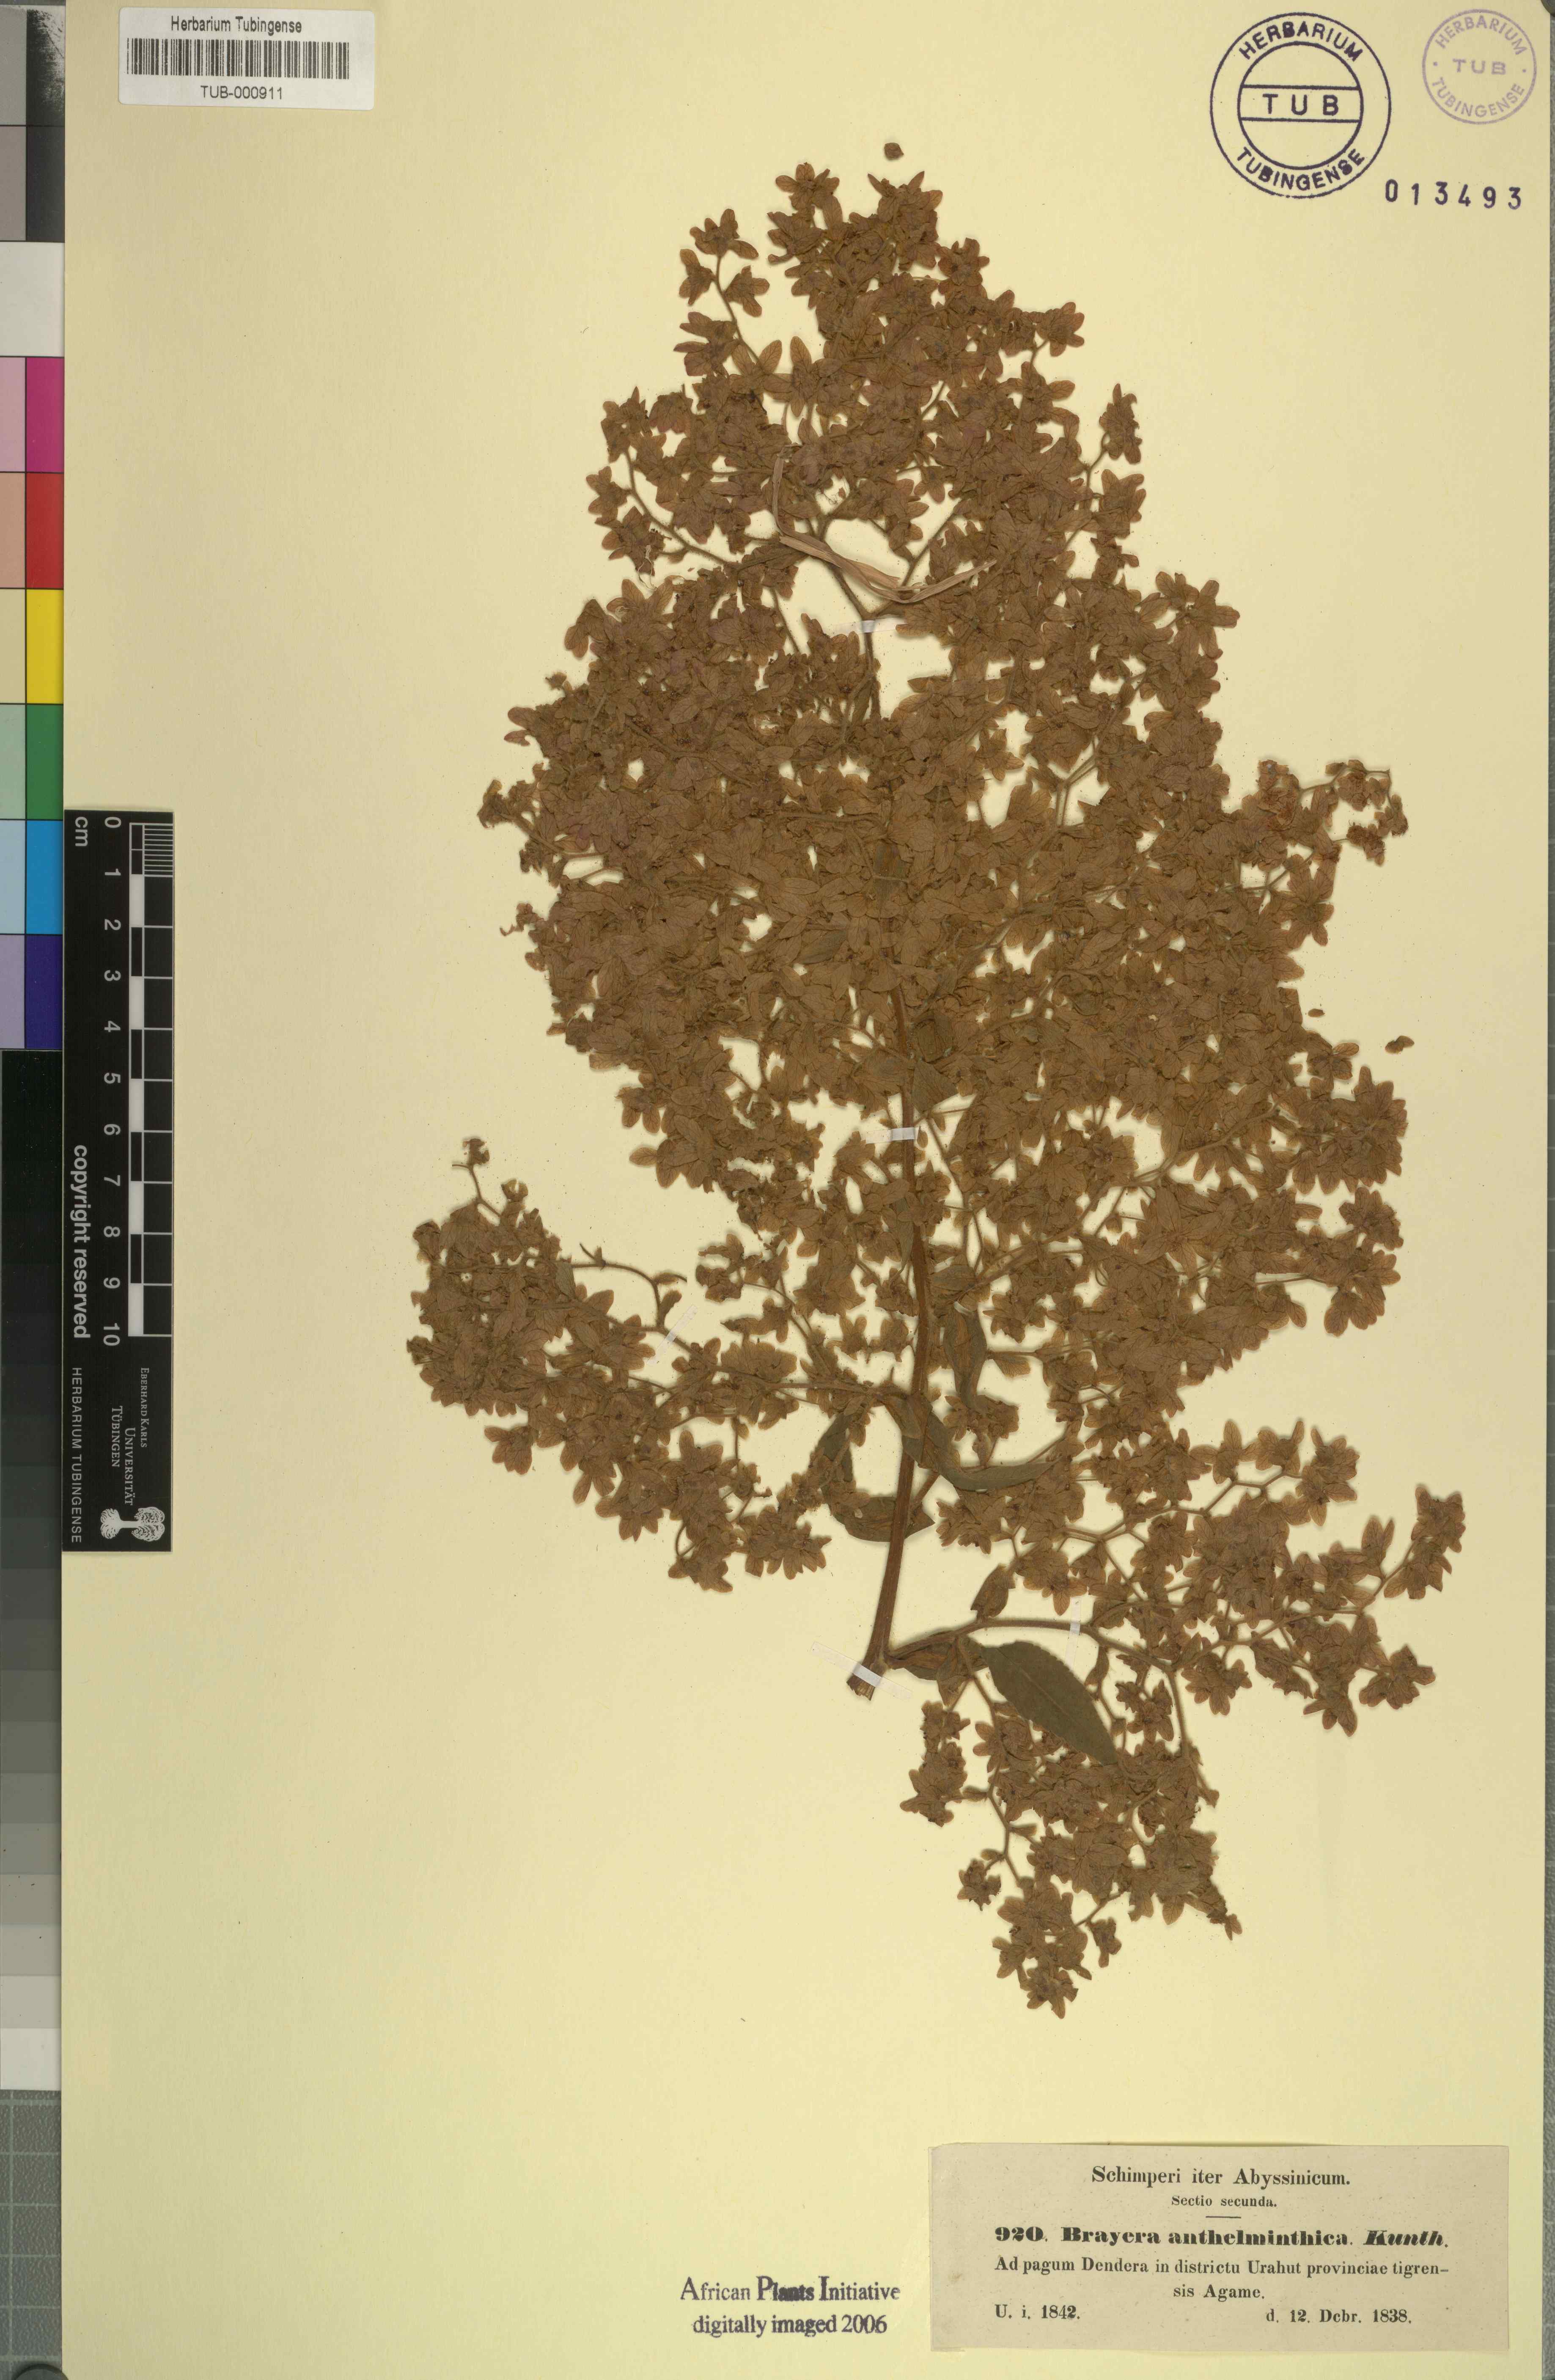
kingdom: Plantae
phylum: Tracheophyta
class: Magnoliopsida
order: Rosales
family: Rosaceae
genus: Hagenia
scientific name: Hagenia abyssinica
